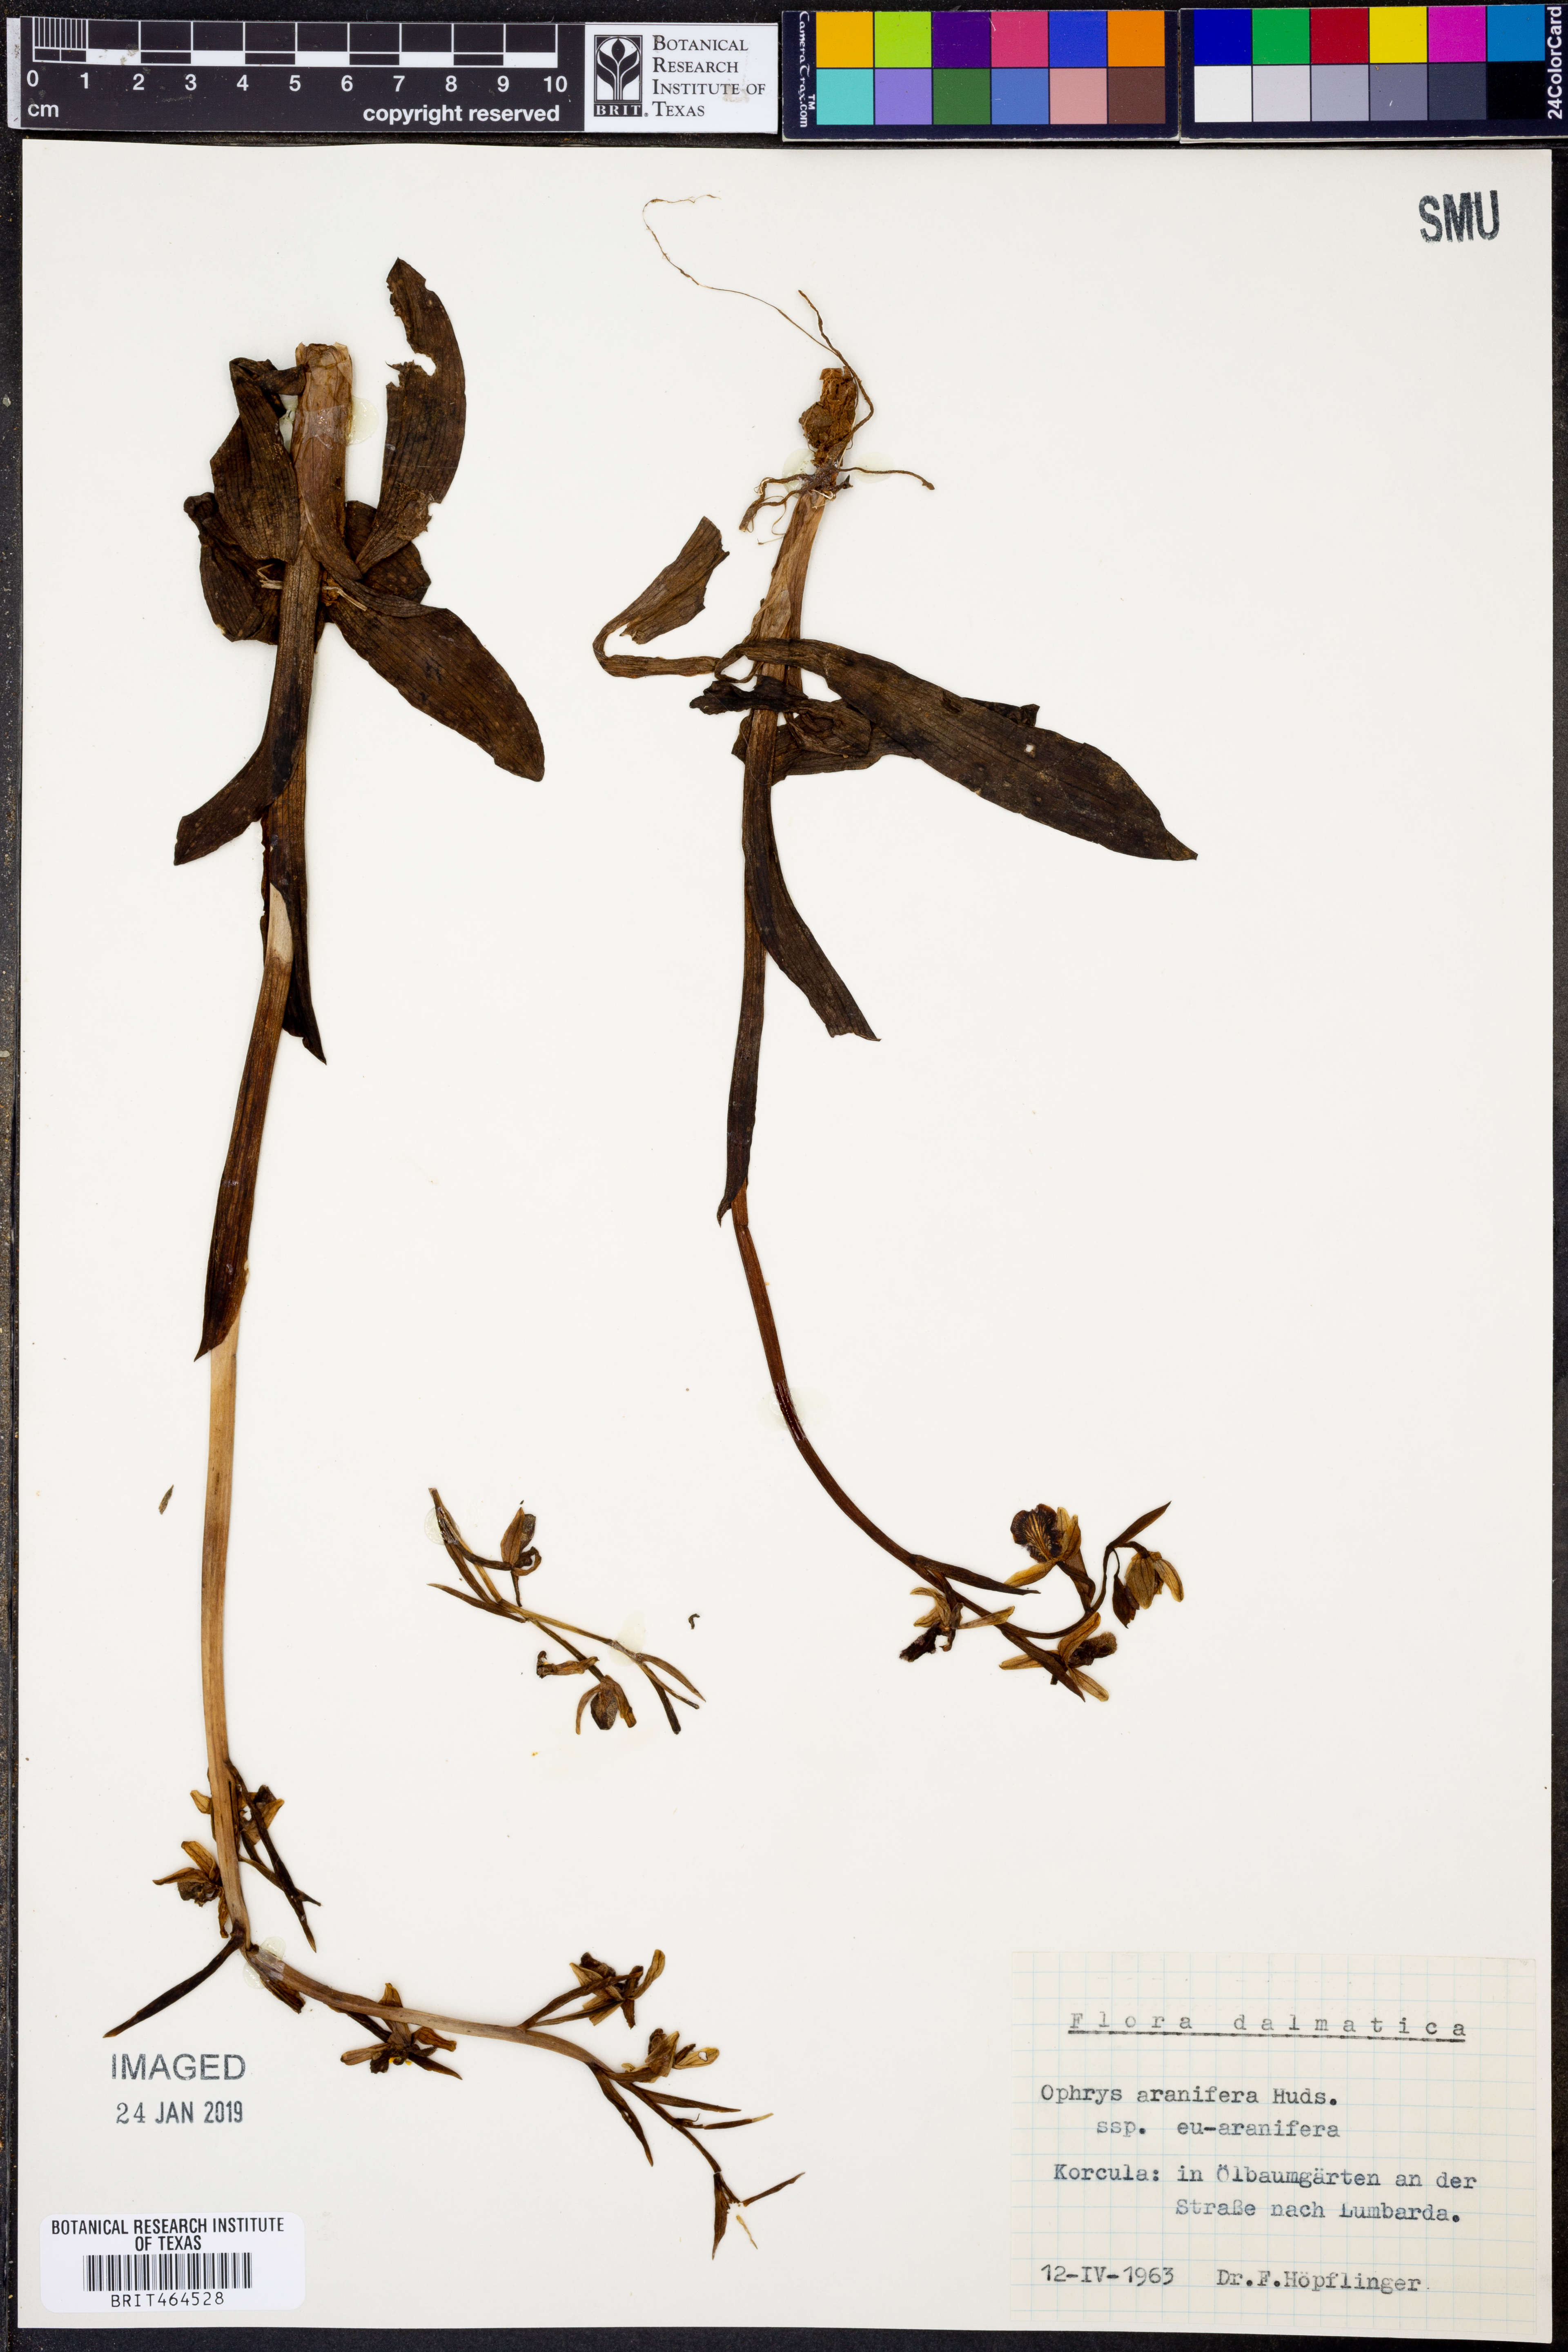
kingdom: Plantae
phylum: Tracheophyta
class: Liliopsida
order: Asparagales
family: Orchidaceae
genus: Ophrys
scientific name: Ophrys sphegodes
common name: Early spider-orchid
